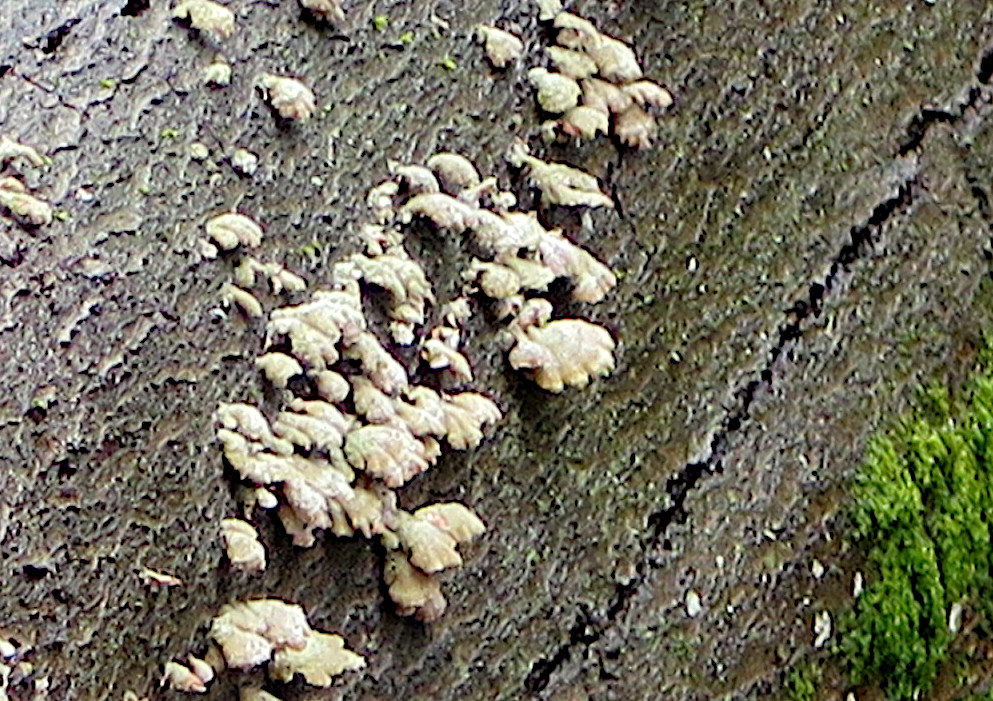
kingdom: Fungi
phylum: Basidiomycota
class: Agaricomycetes
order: Agaricales
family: Schizophyllaceae
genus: Schizophyllum
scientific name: Schizophyllum commune
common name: kløvblad
